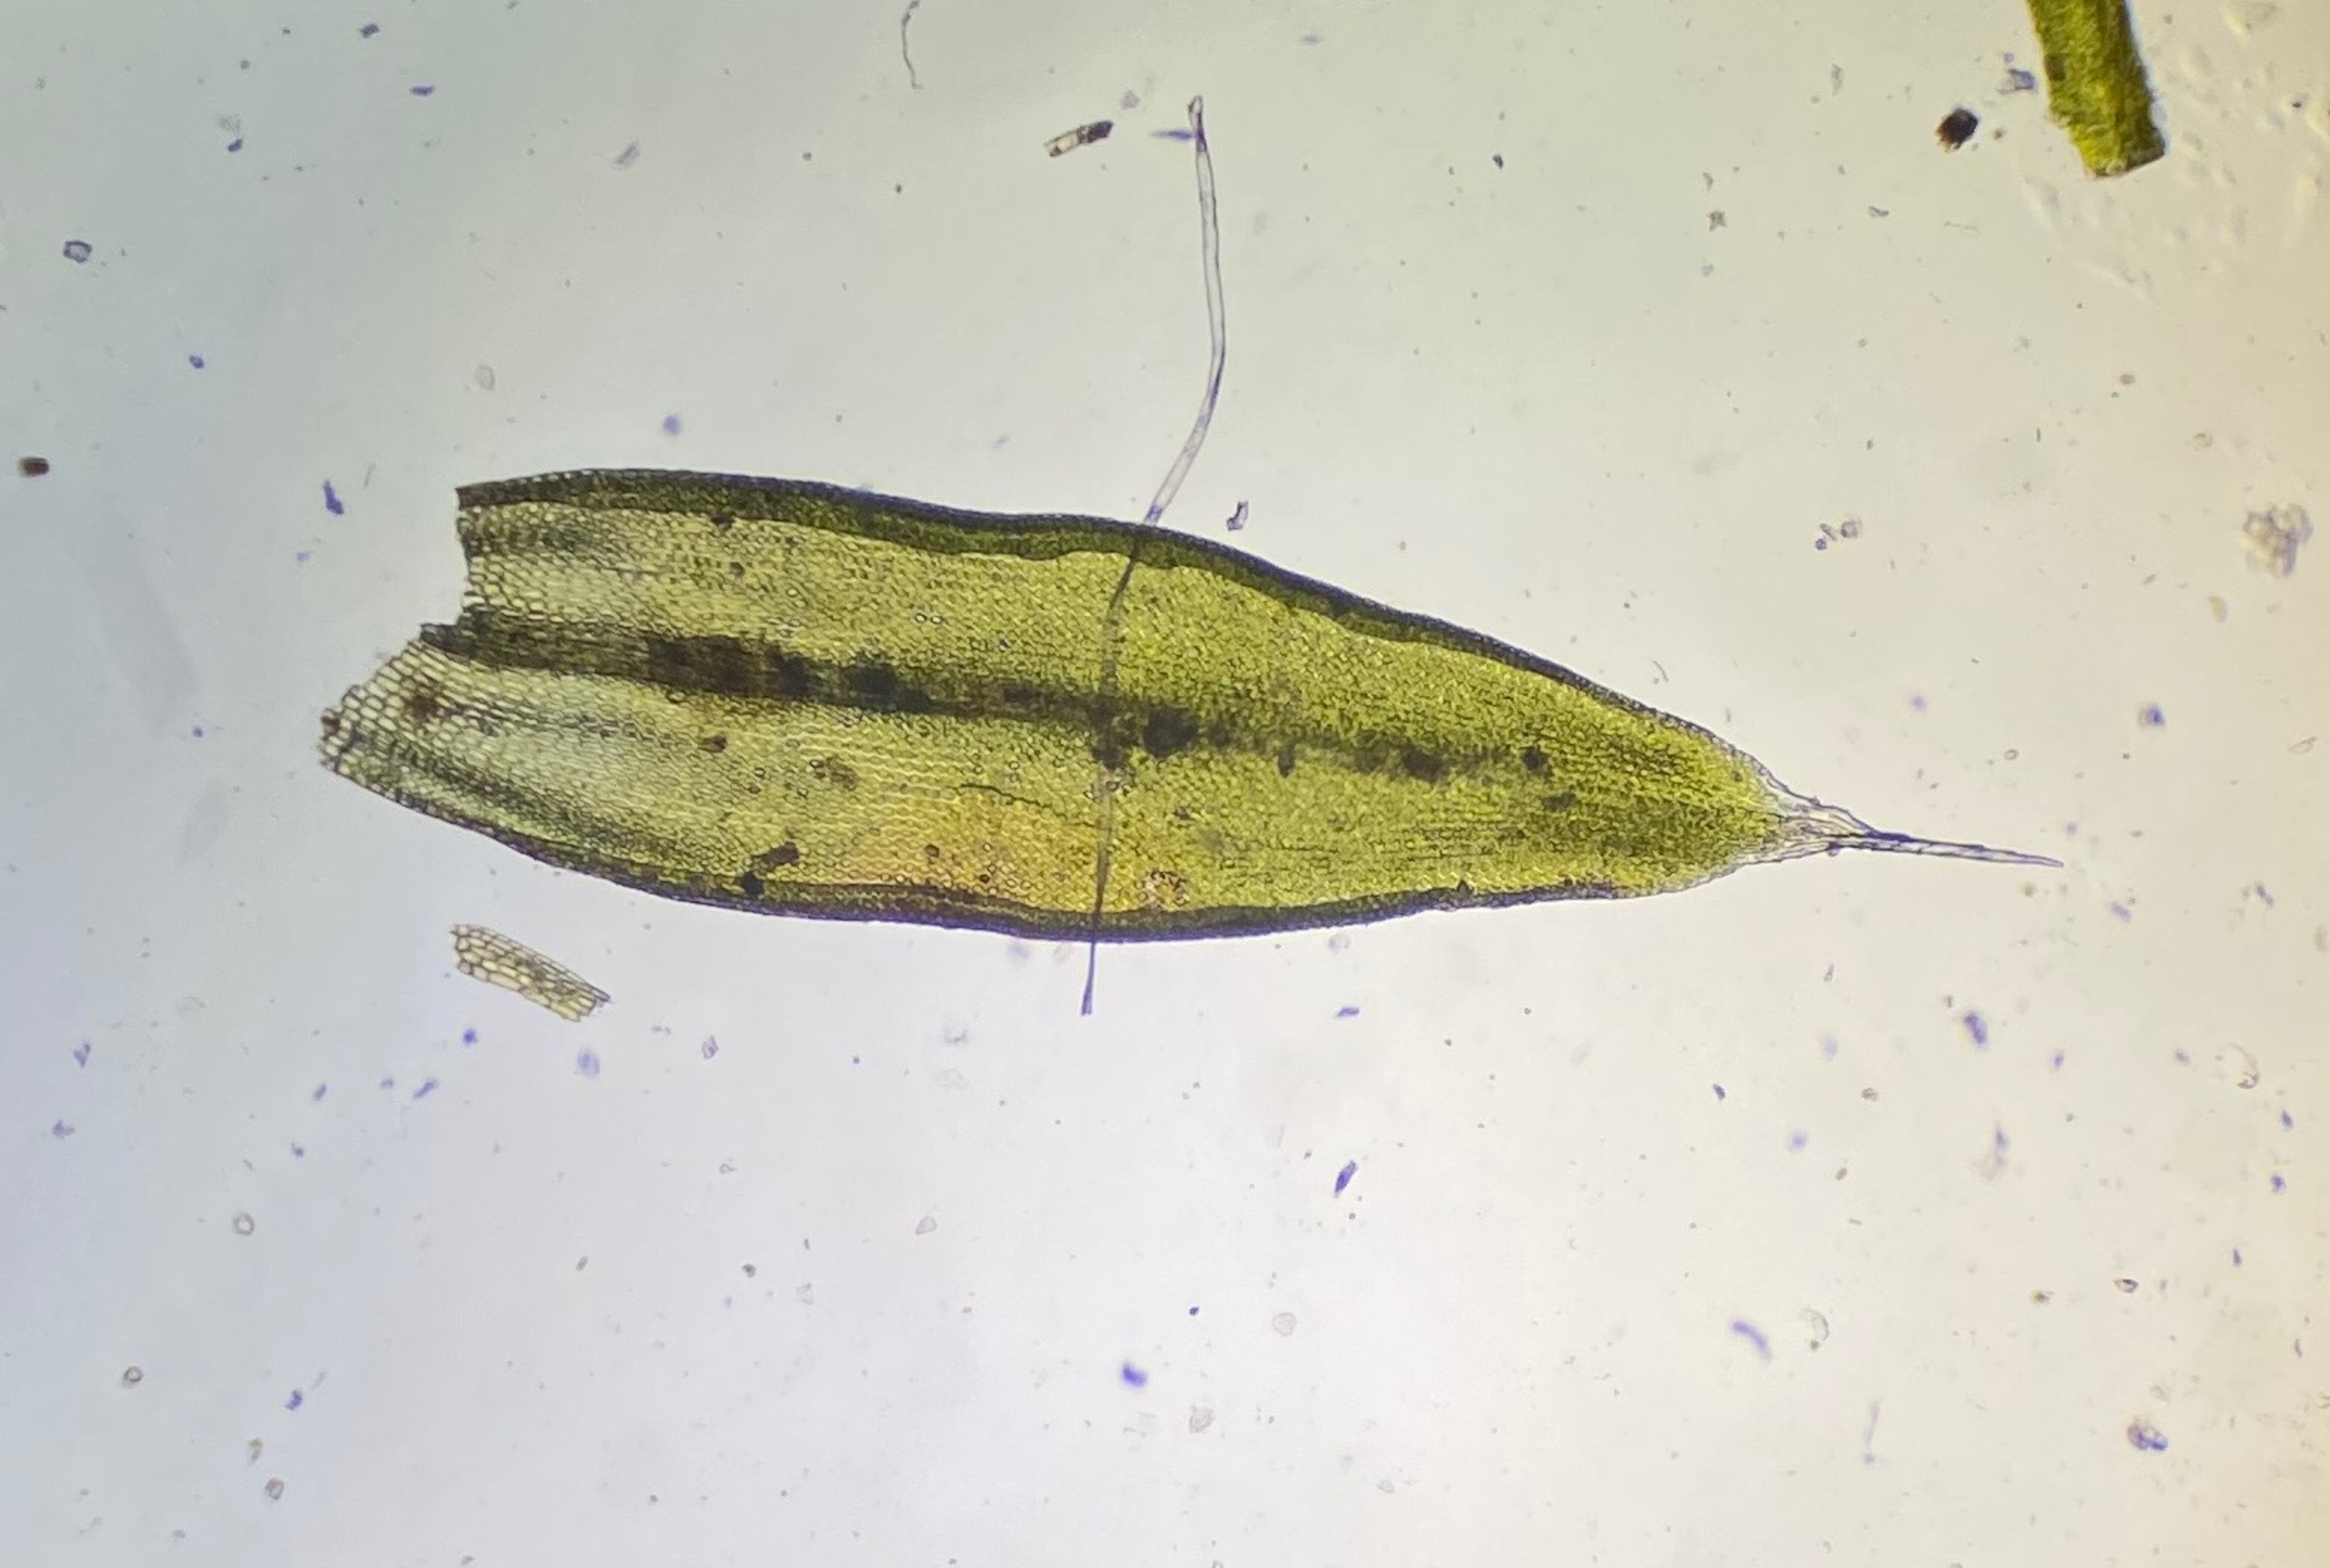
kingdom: Plantae
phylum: Bryophyta
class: Bryopsida
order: Orthotrichales
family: Orthotrichaceae
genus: Orthotrichum
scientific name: Orthotrichum diaphanum
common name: Hårspidset furehætte
